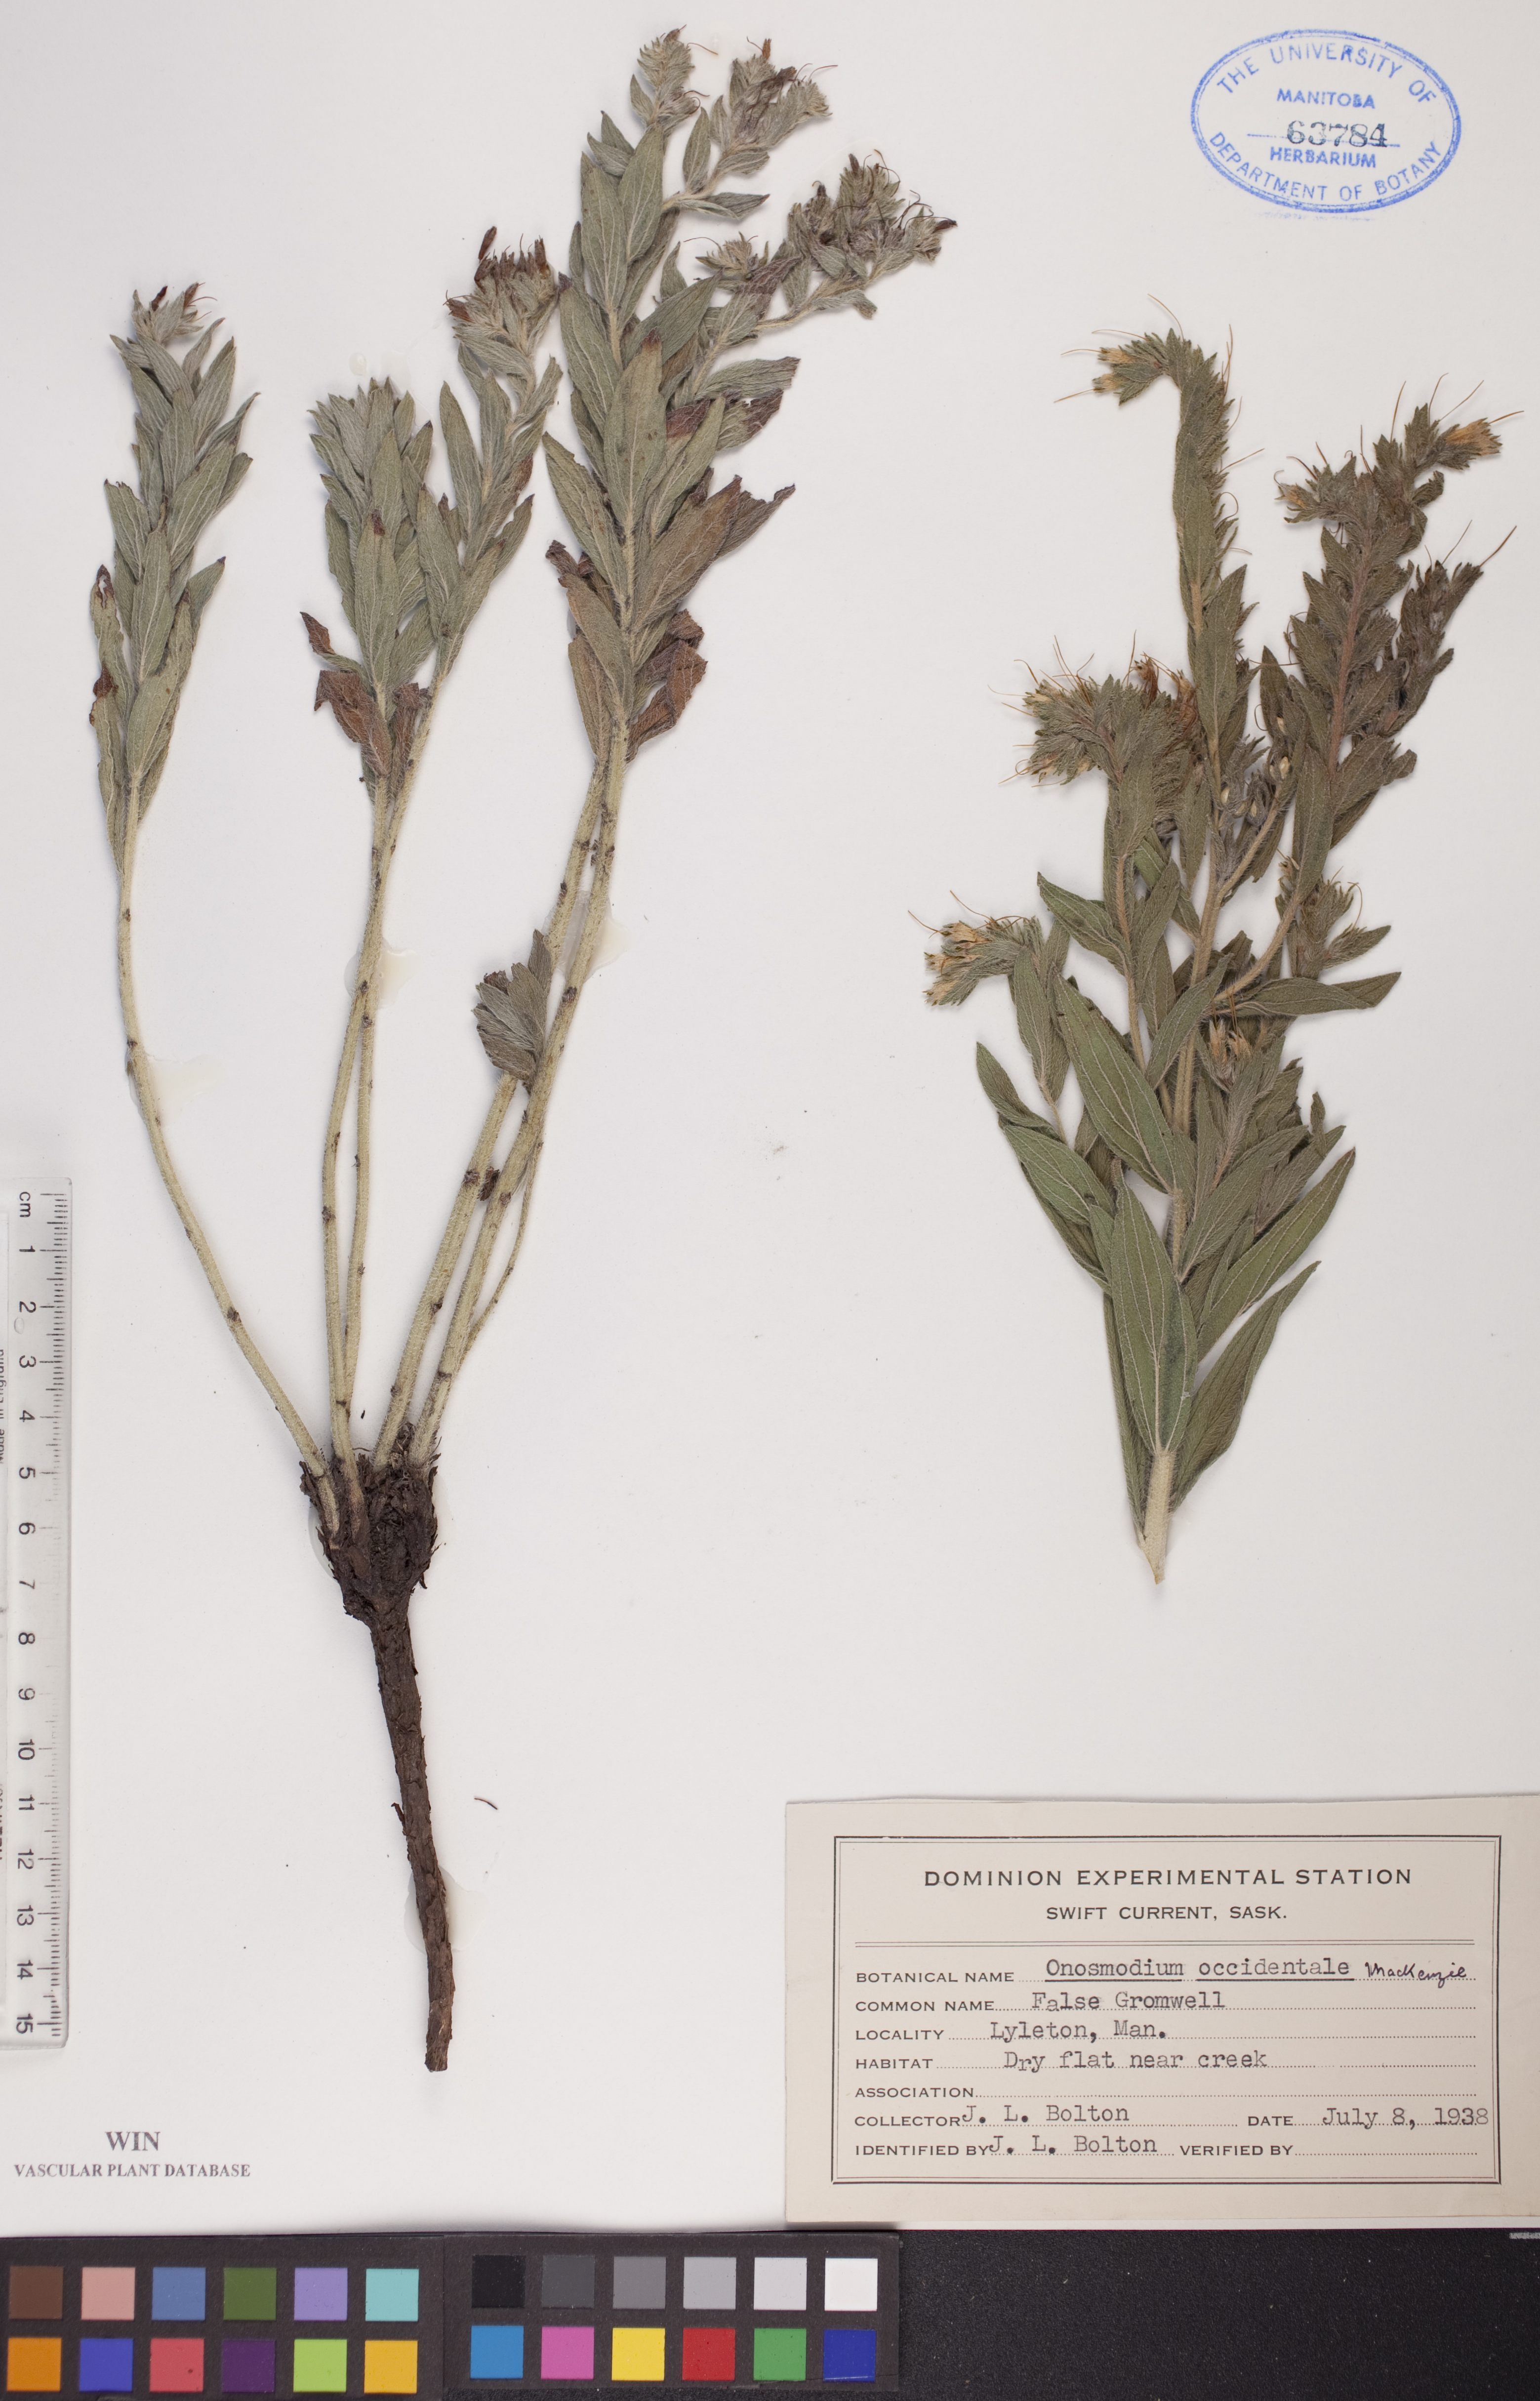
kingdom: Plantae
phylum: Tracheophyta
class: Magnoliopsida
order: Boraginales
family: Boraginaceae
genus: Lithospermum
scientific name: Lithospermum occidentale
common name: Western false gromwell
